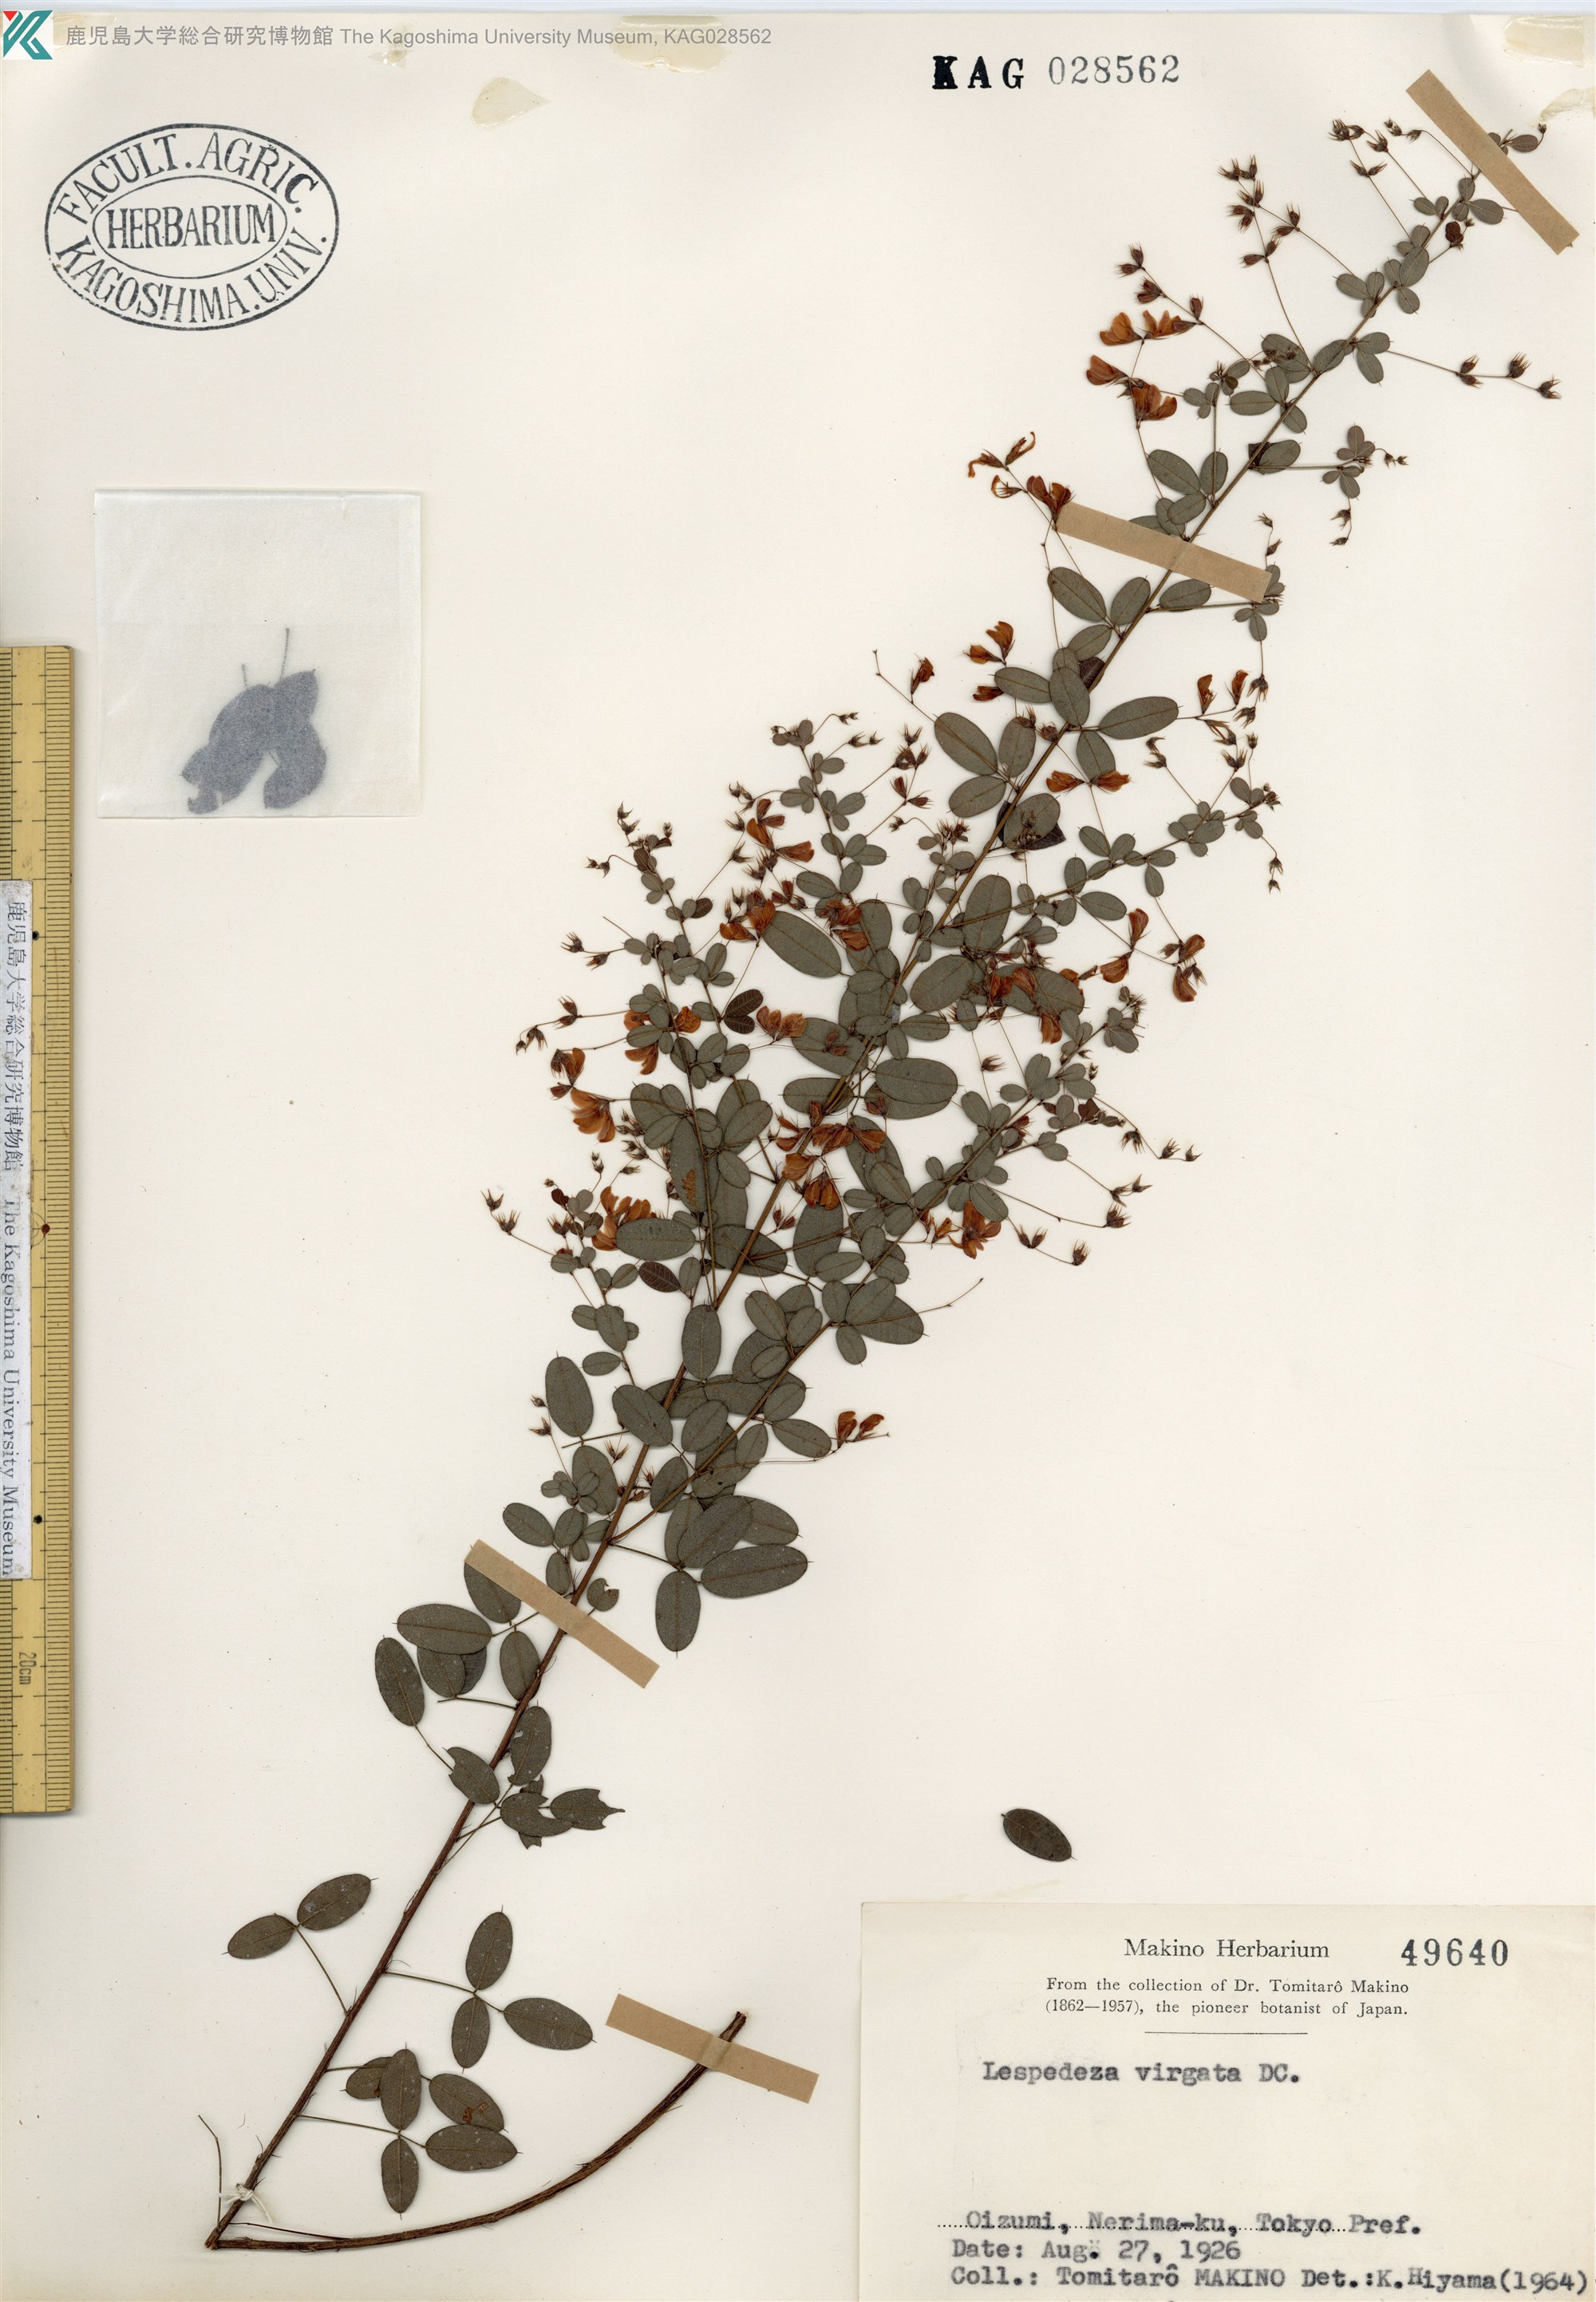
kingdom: Plantae
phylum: Tracheophyta
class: Magnoliopsida
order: Fabales
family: Fabaceae
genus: Lespedeza
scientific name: Lespedeza virgata
